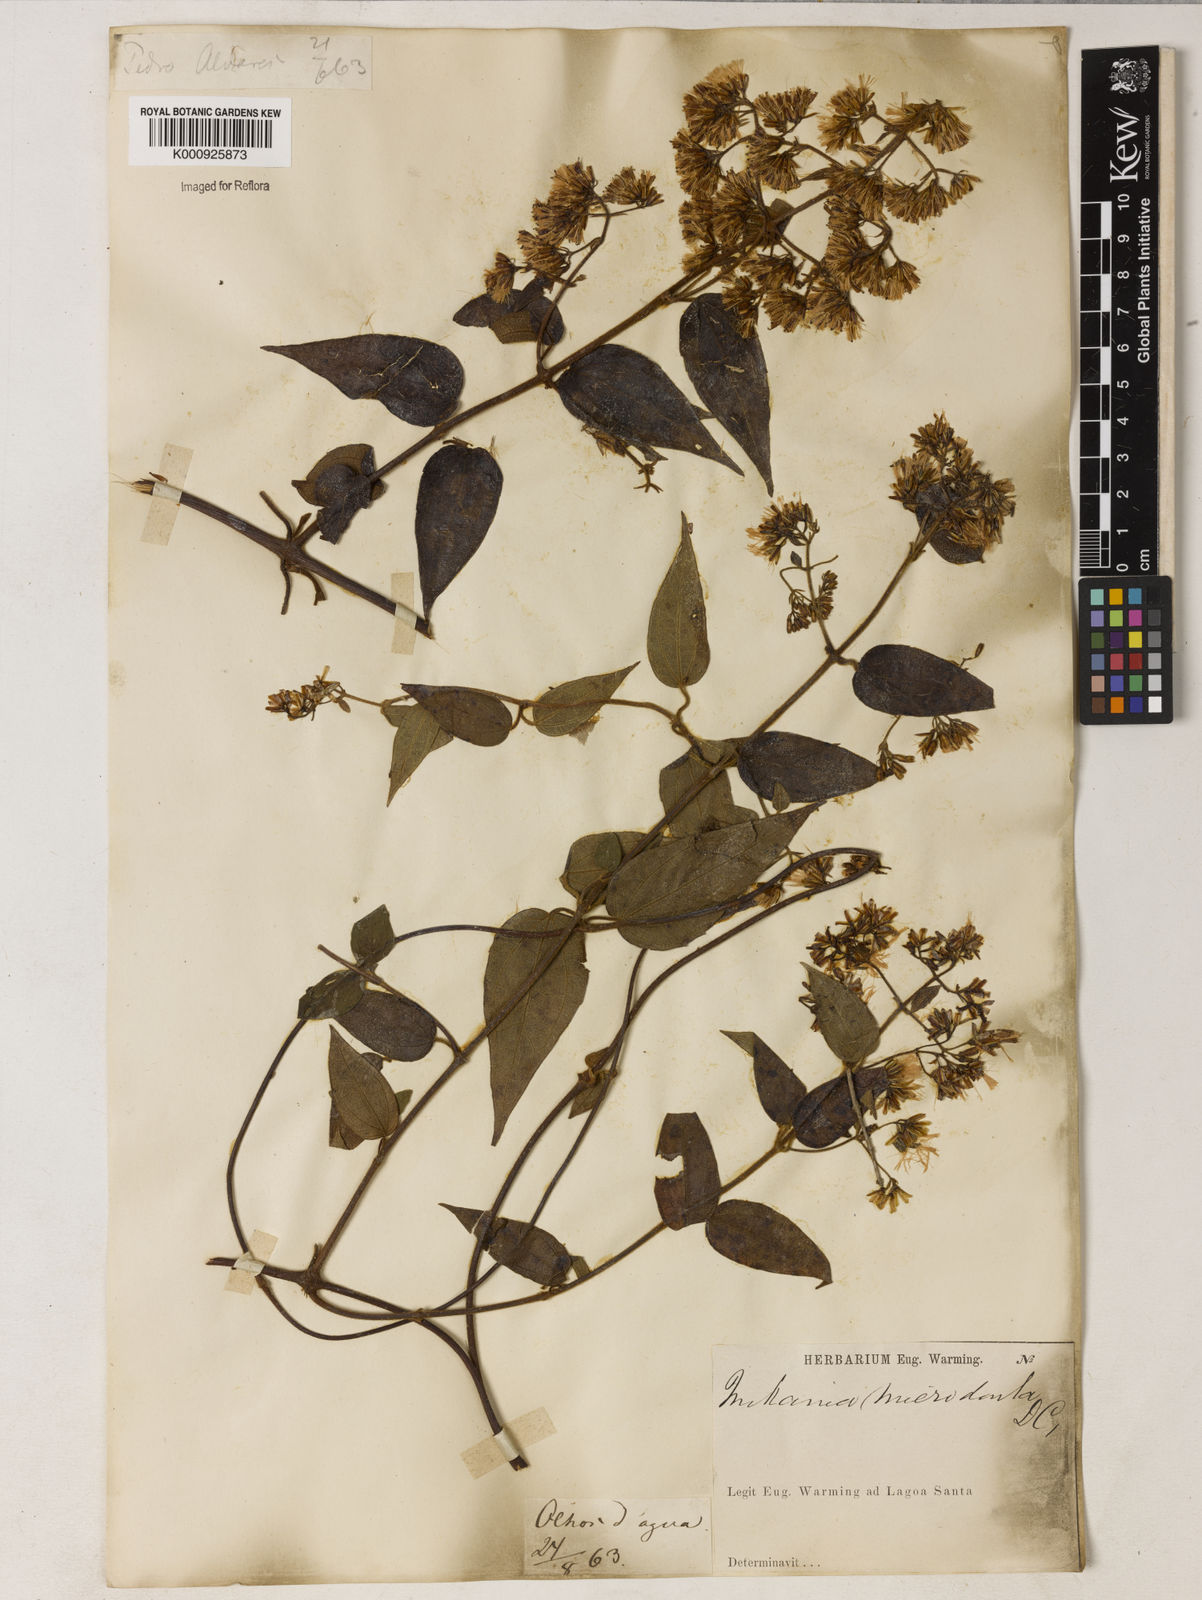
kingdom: Plantae
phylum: Tracheophyta
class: Magnoliopsida
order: Asterales
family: Asteraceae
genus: Mikania
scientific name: Mikania microdonta
